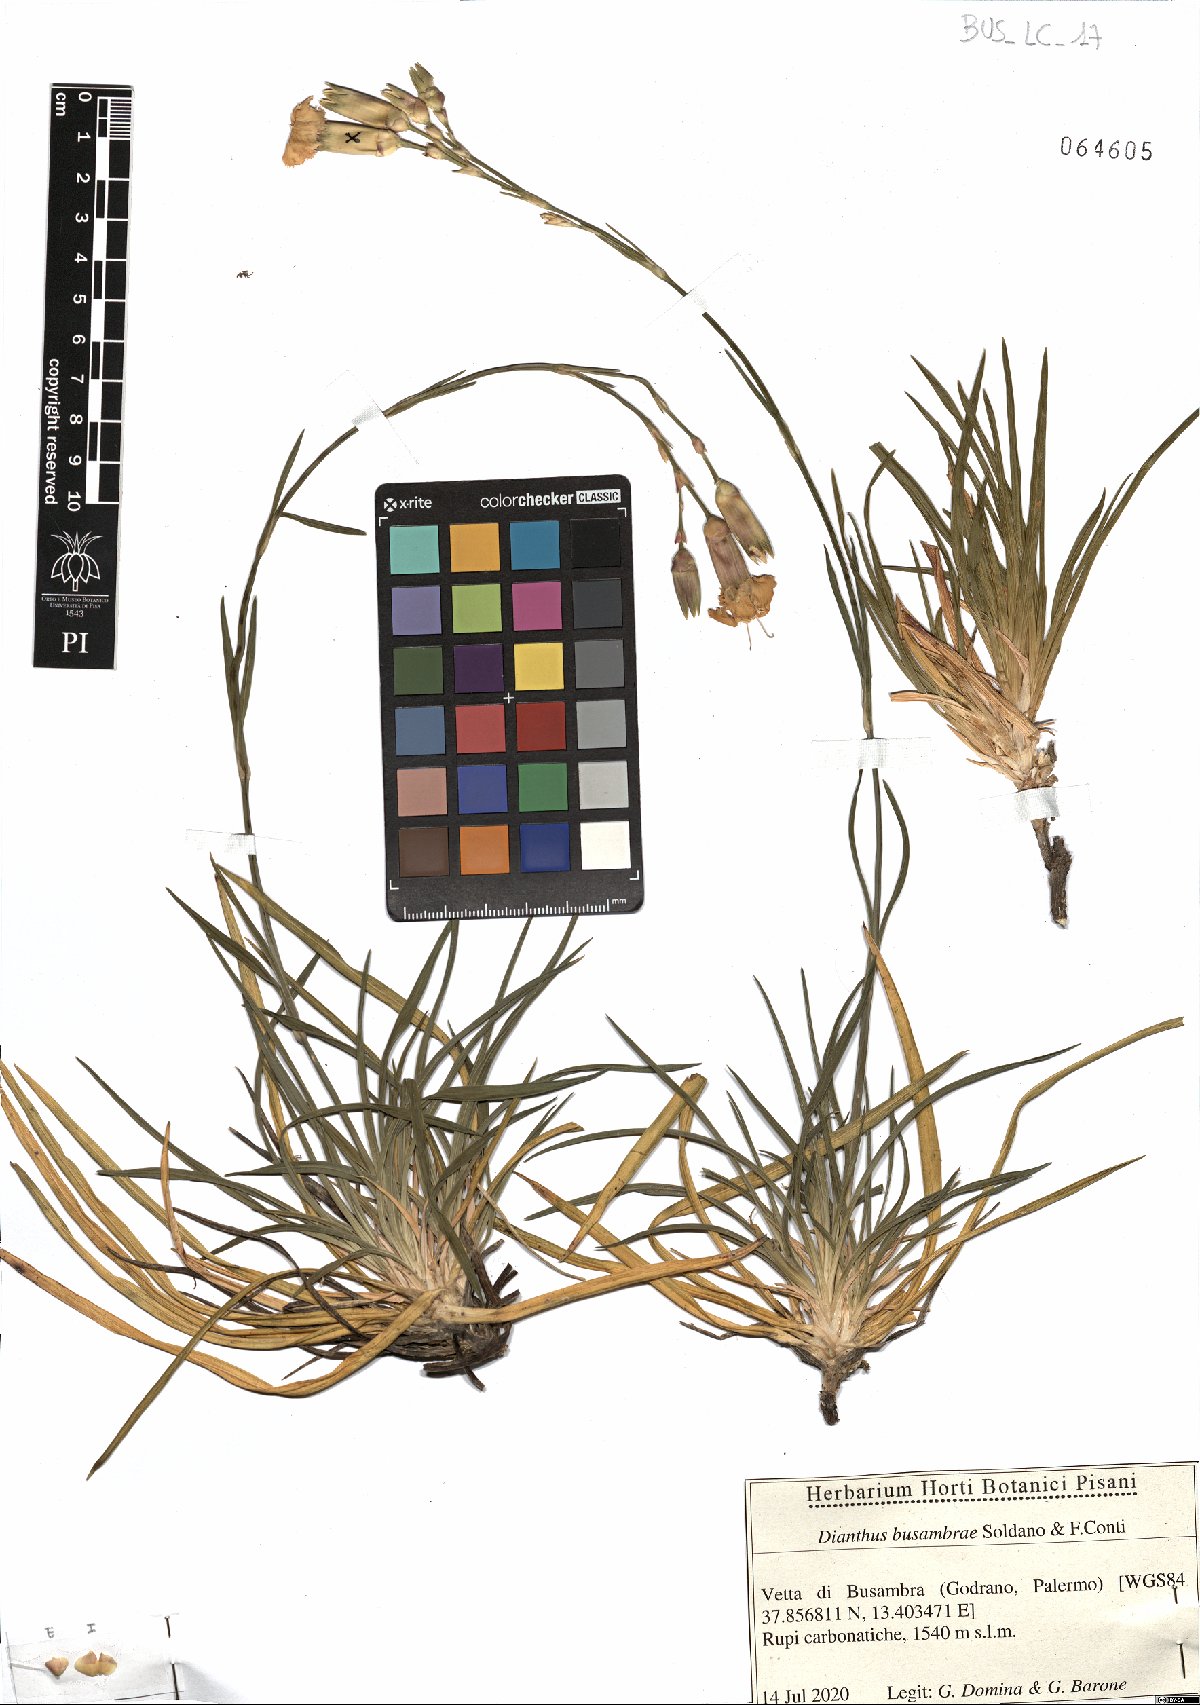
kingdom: Plantae
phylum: Tracheophyta
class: Magnoliopsida
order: Caryophyllales
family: Caryophyllaceae
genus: Dianthus
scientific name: Dianthus busambrae
